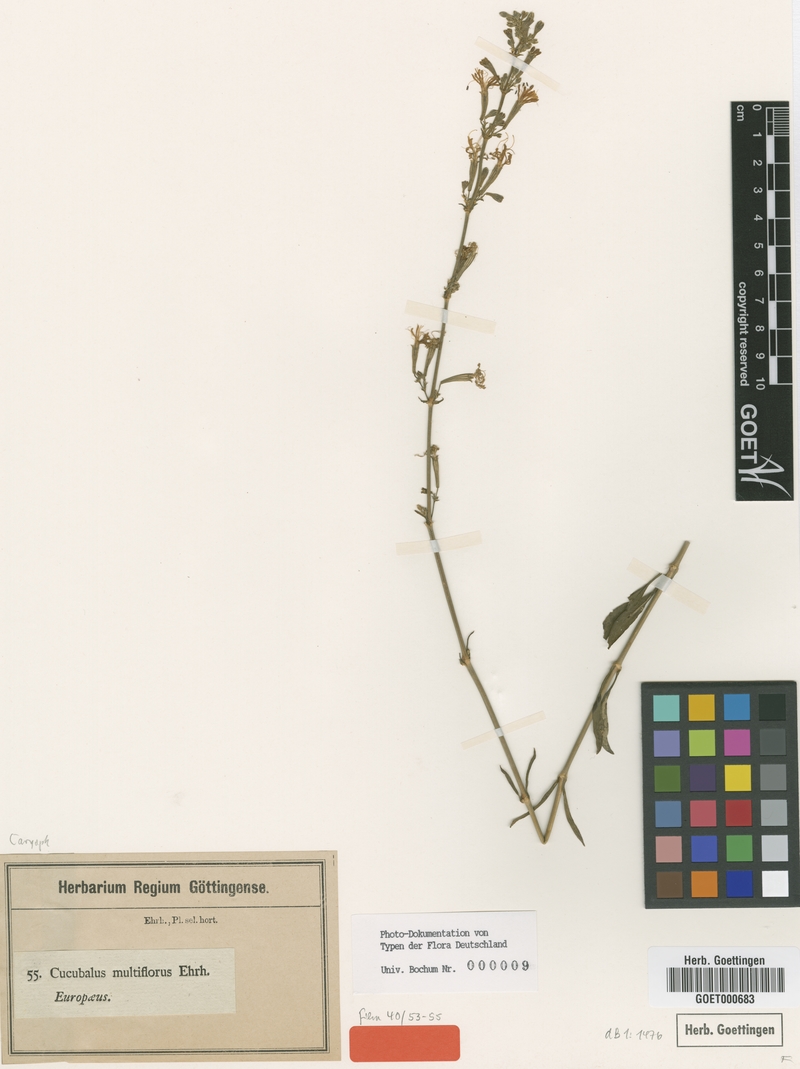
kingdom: Plantae
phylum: Tracheophyta
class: Magnoliopsida
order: Caryophyllales
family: Caryophyllaceae
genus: Silene
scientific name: Silene multiflora
